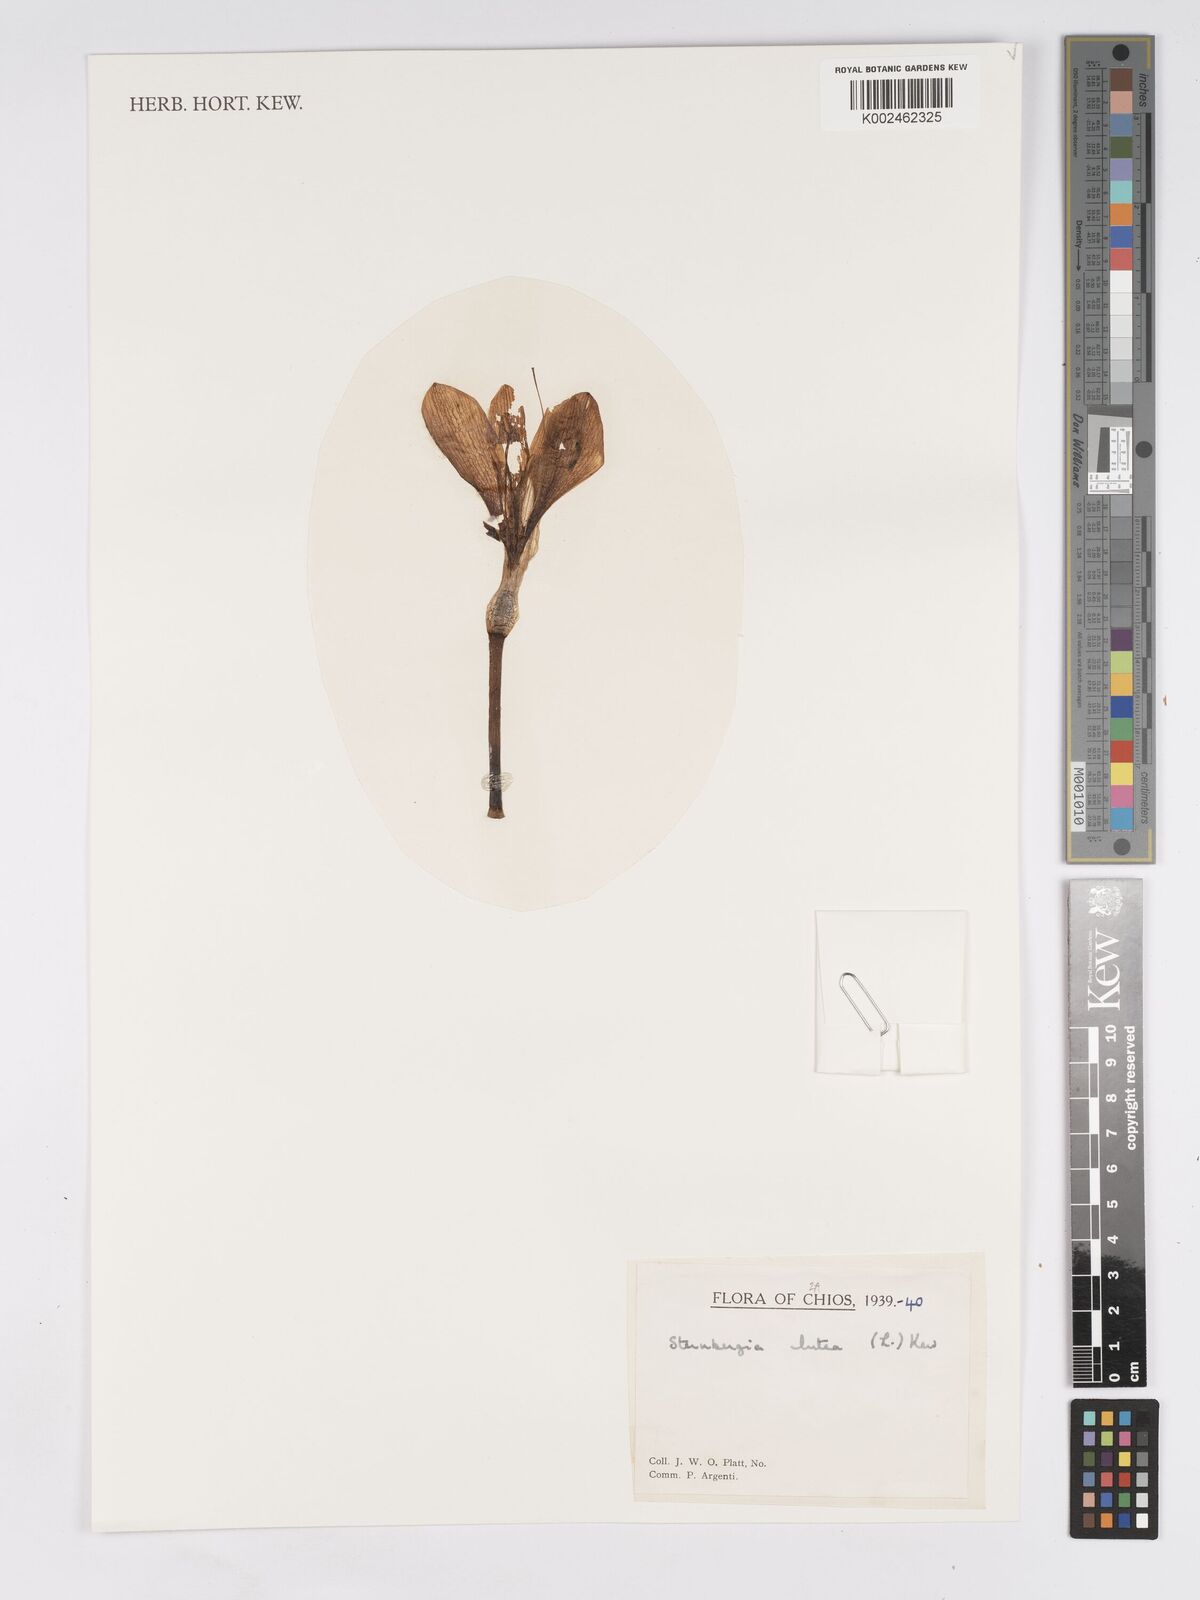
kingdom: Plantae
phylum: Tracheophyta
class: Liliopsida
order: Asparagales
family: Amaryllidaceae
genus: Sternbergia
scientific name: Sternbergia lutea
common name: Winter daffodil
